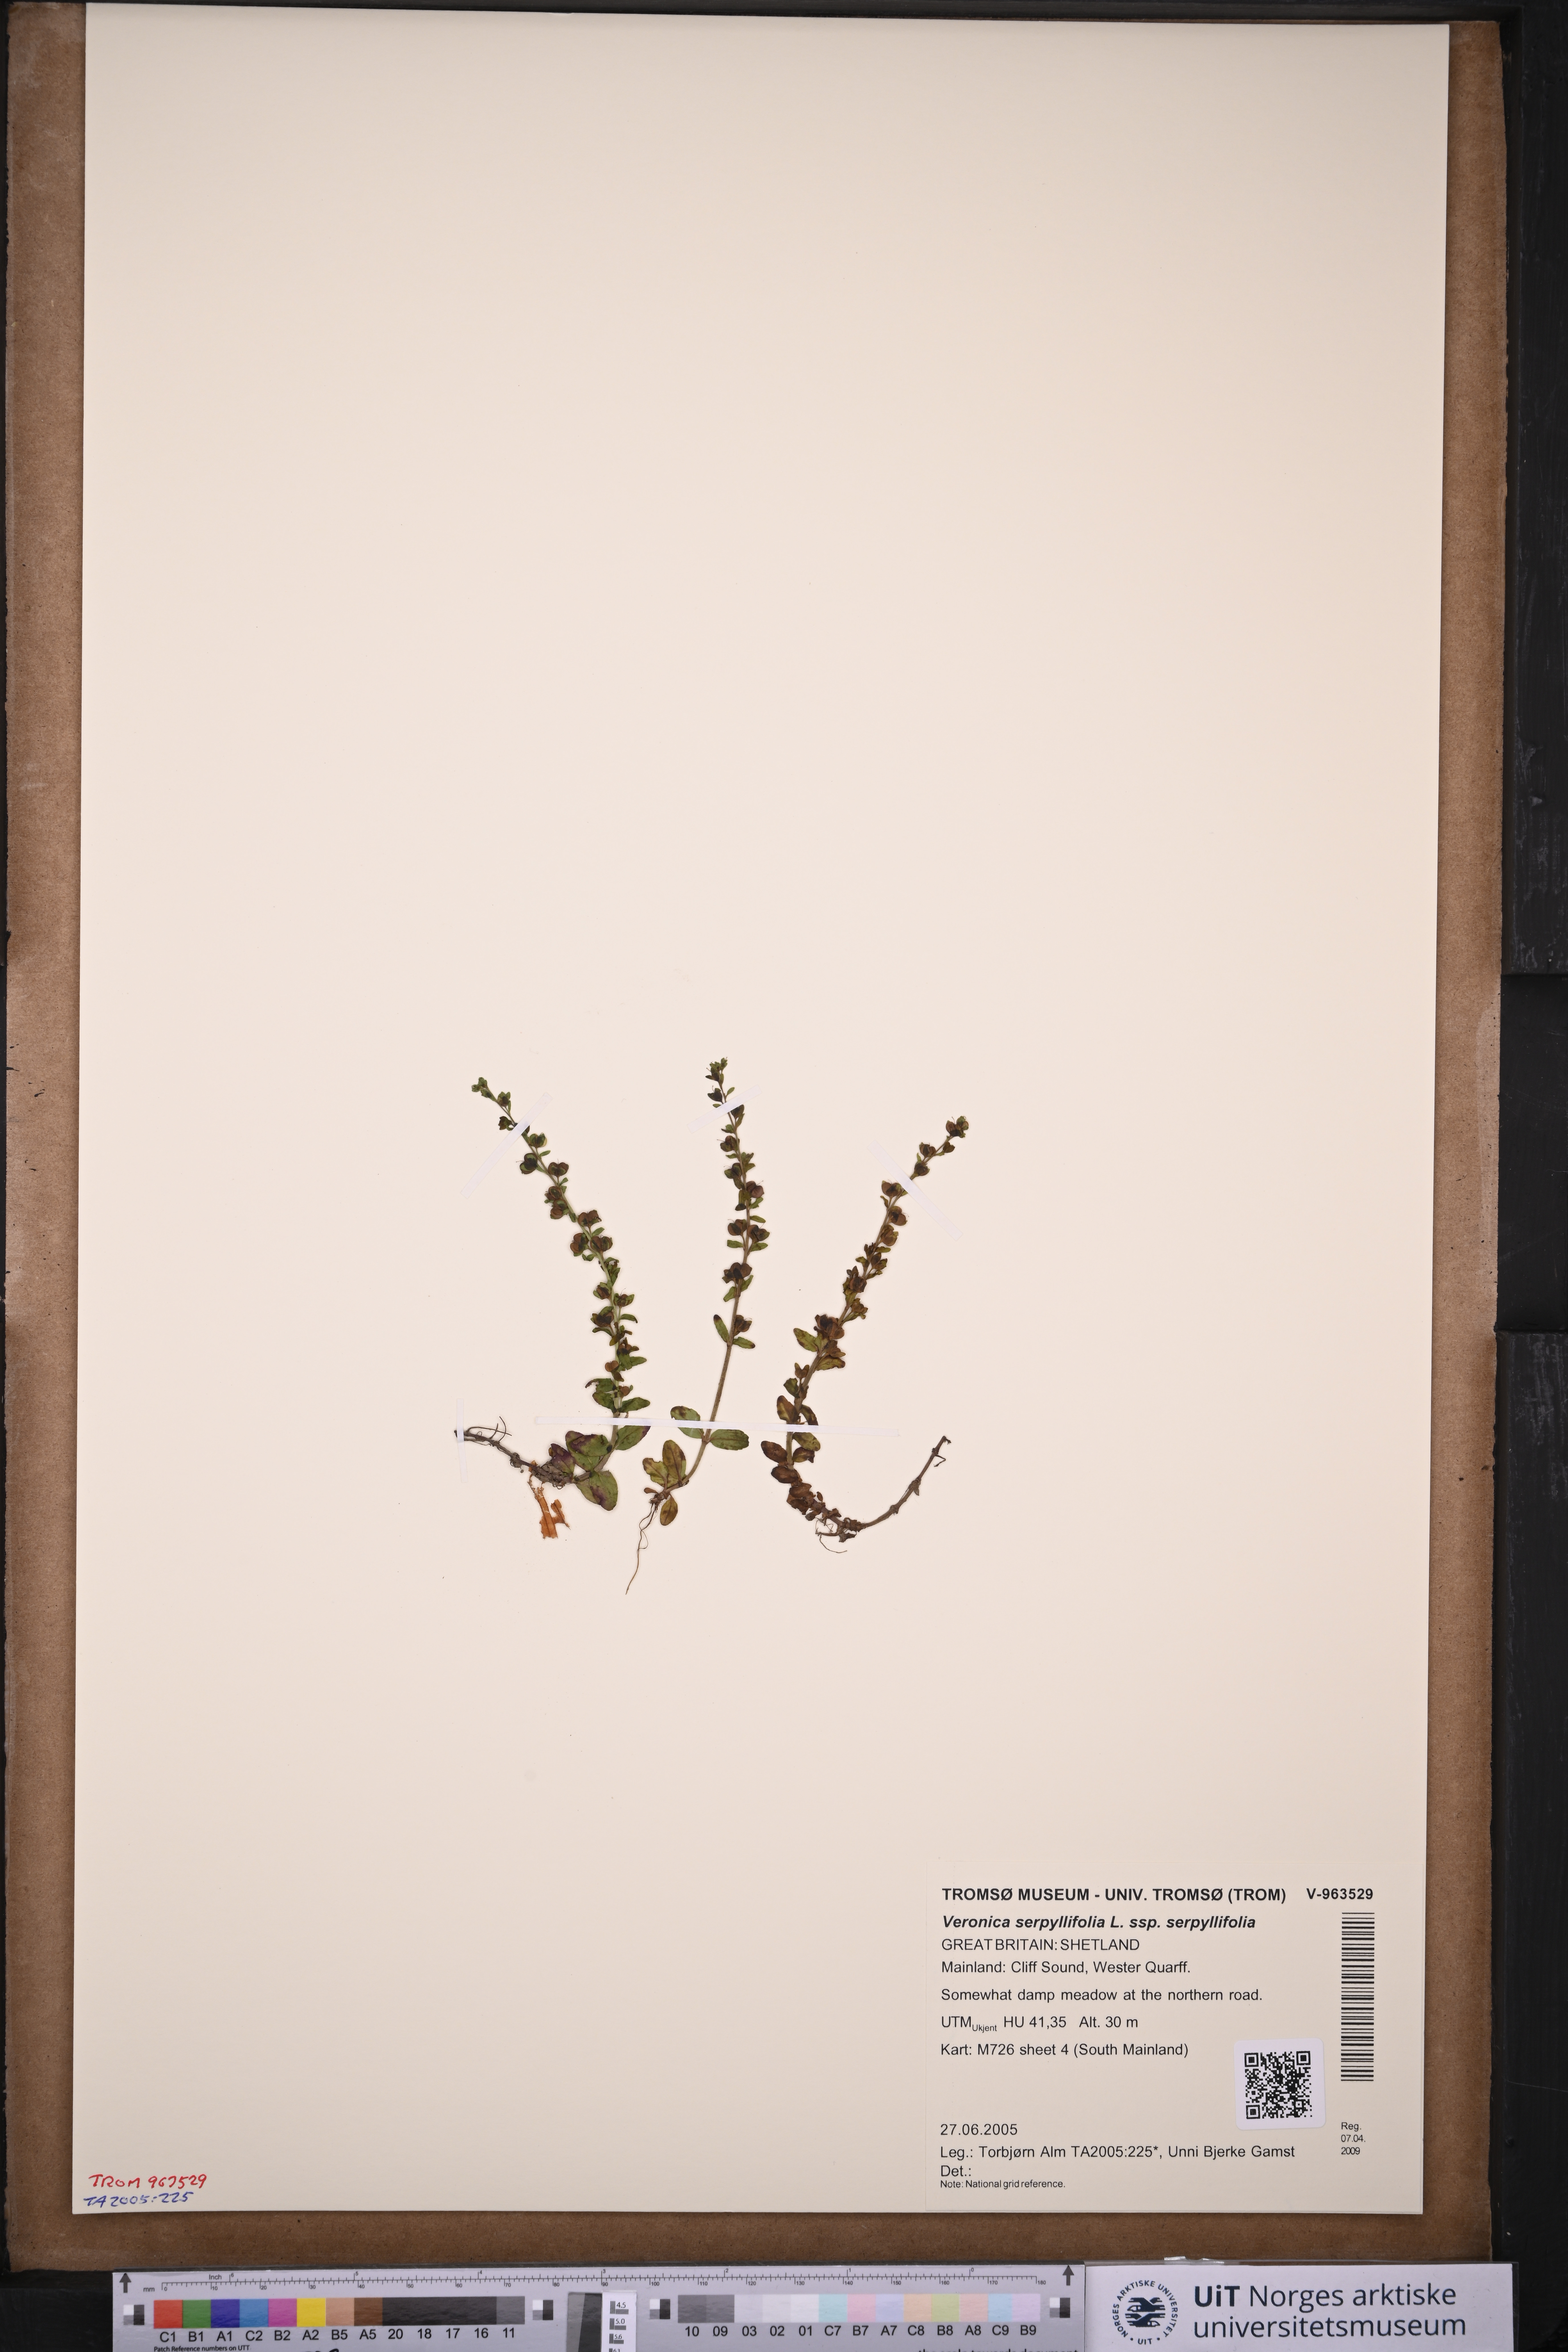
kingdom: Plantae
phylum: Tracheophyta
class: Magnoliopsida
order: Lamiales
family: Plantaginaceae
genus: Veronica
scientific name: Veronica serpyllifolia
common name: Thyme-leaved speedwell
